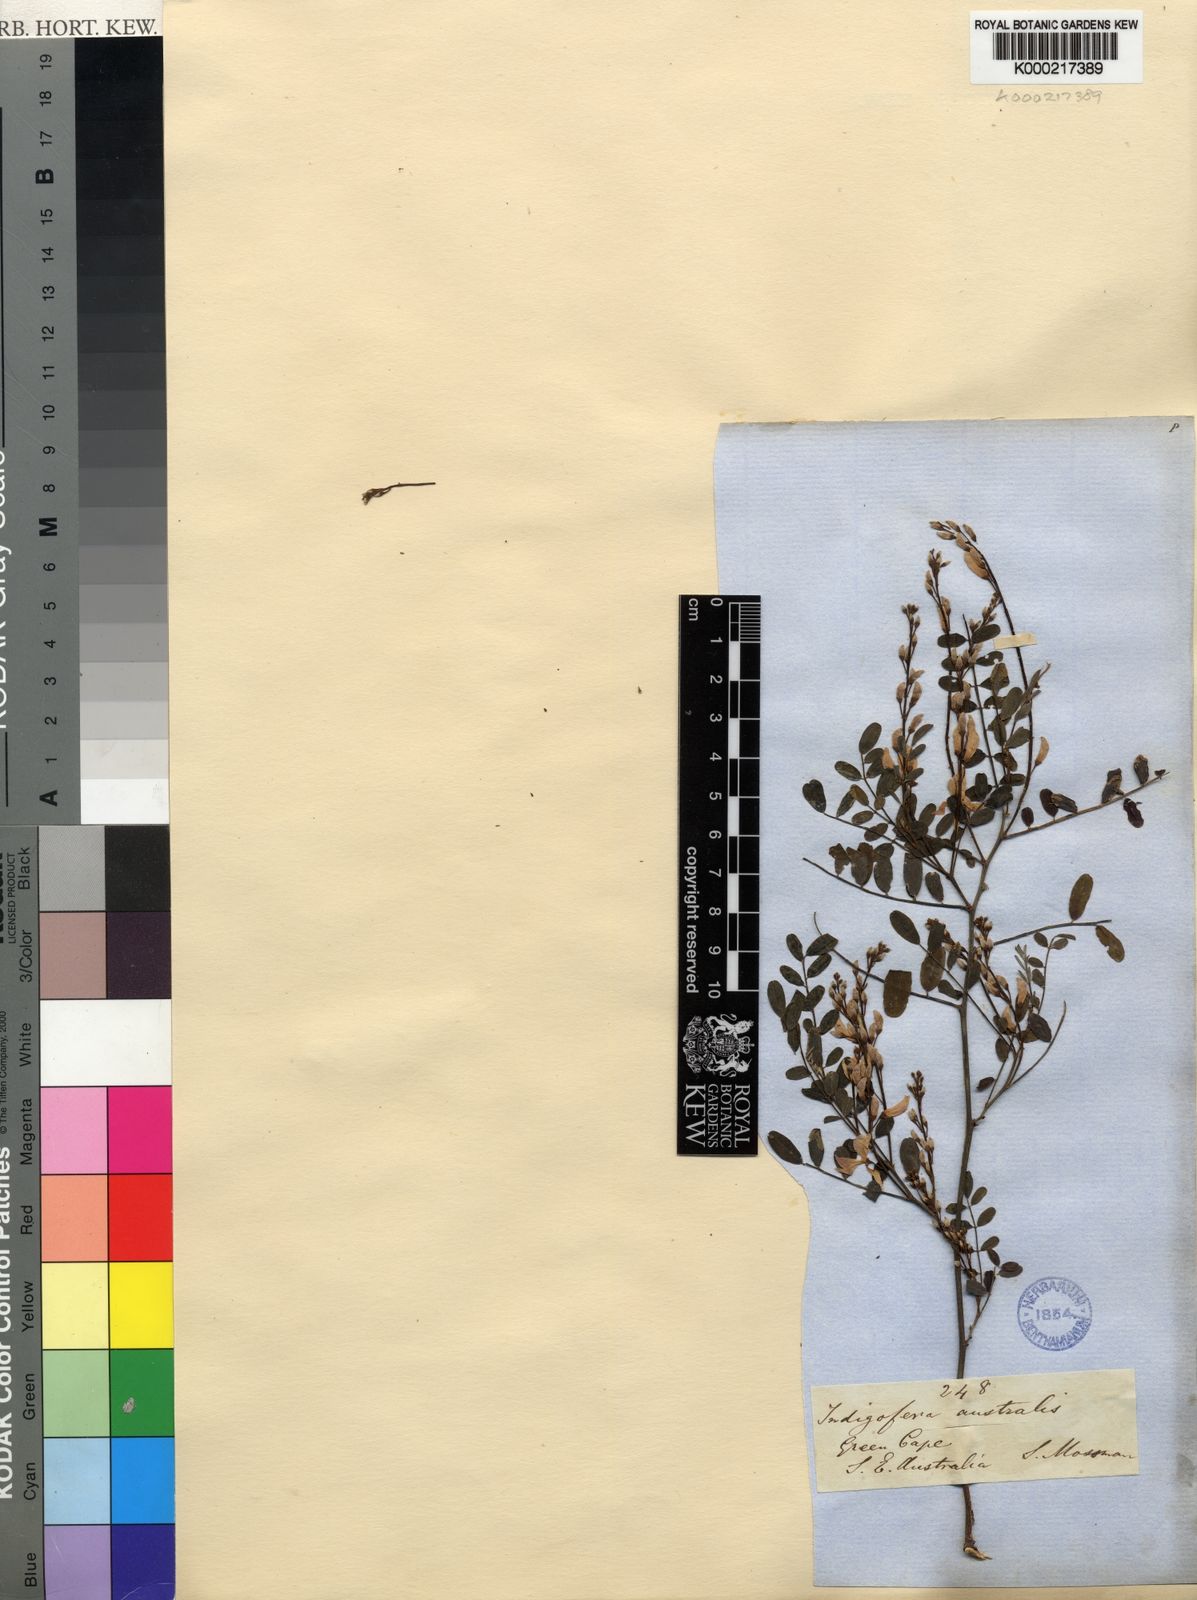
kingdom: Plantae
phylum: Tracheophyta
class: Magnoliopsida
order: Fabales
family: Fabaceae
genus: Indigofera
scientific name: Indigofera australis
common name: Australian indigo
